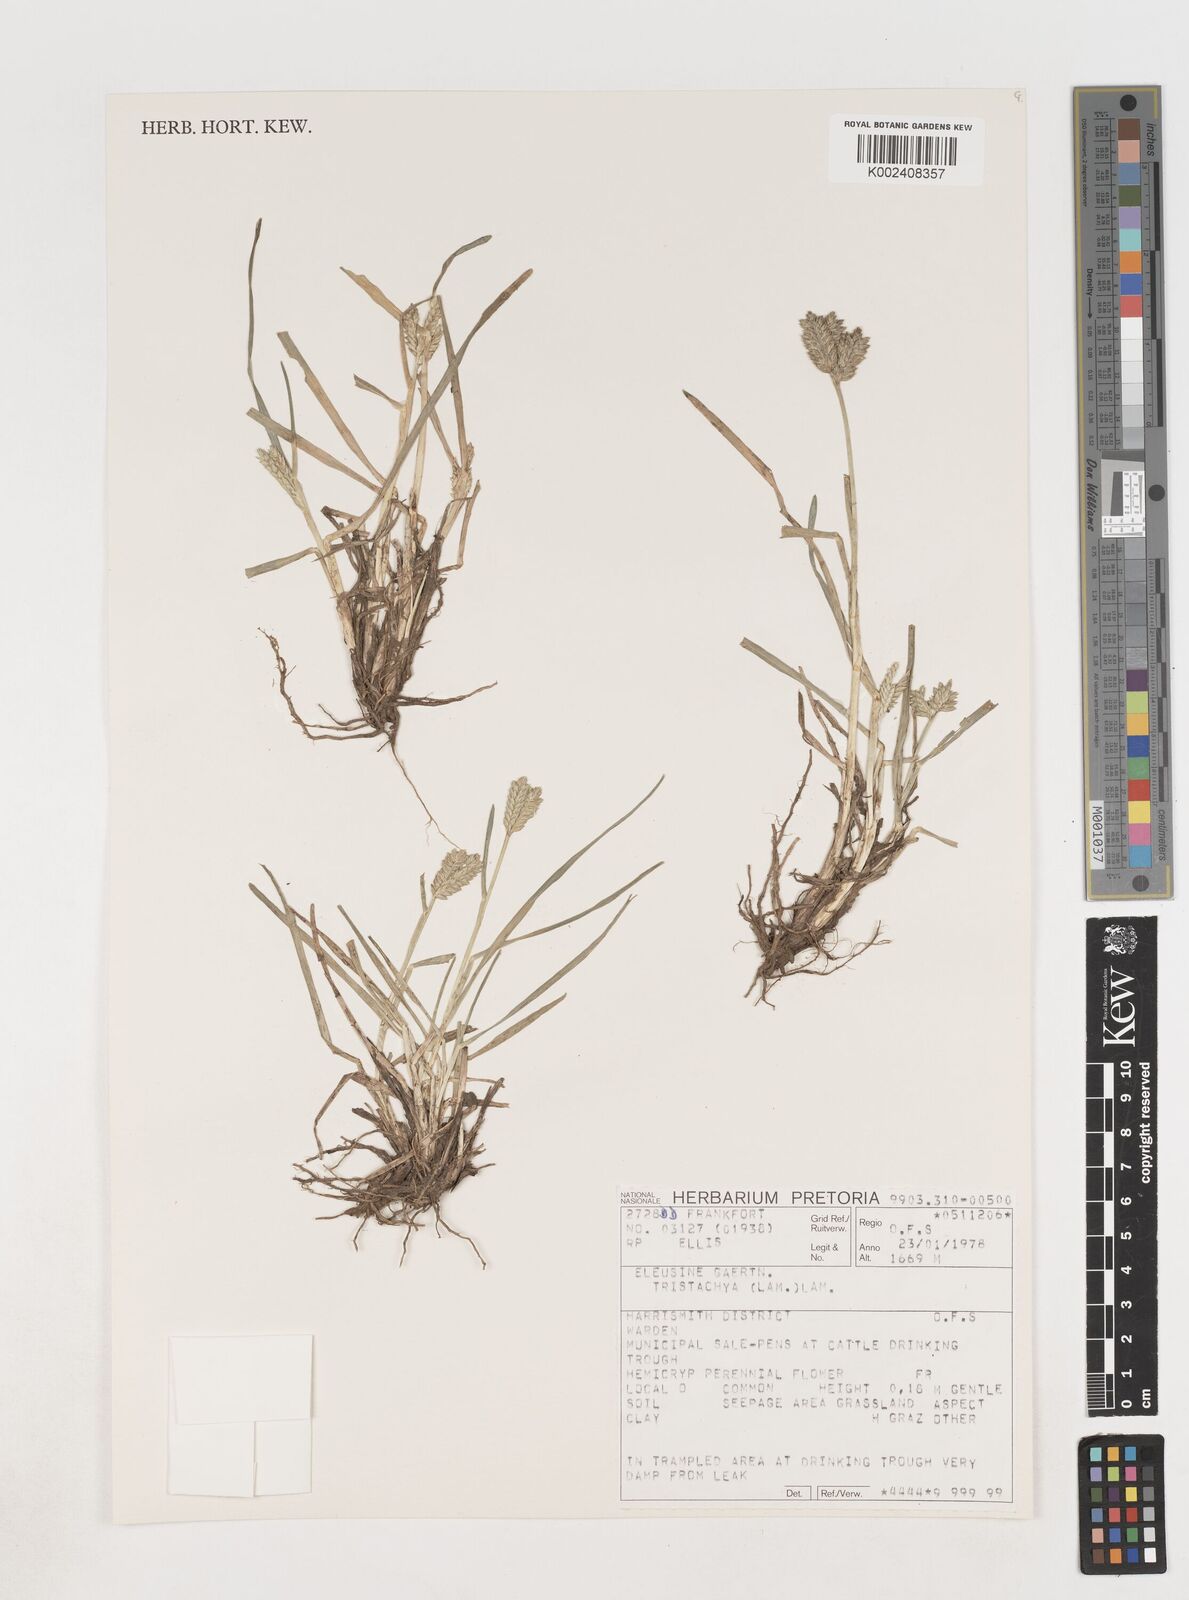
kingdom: Plantae
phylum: Tracheophyta
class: Liliopsida
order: Poales
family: Poaceae
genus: Eleusine
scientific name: Eleusine tristachya
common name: American yard-grass
